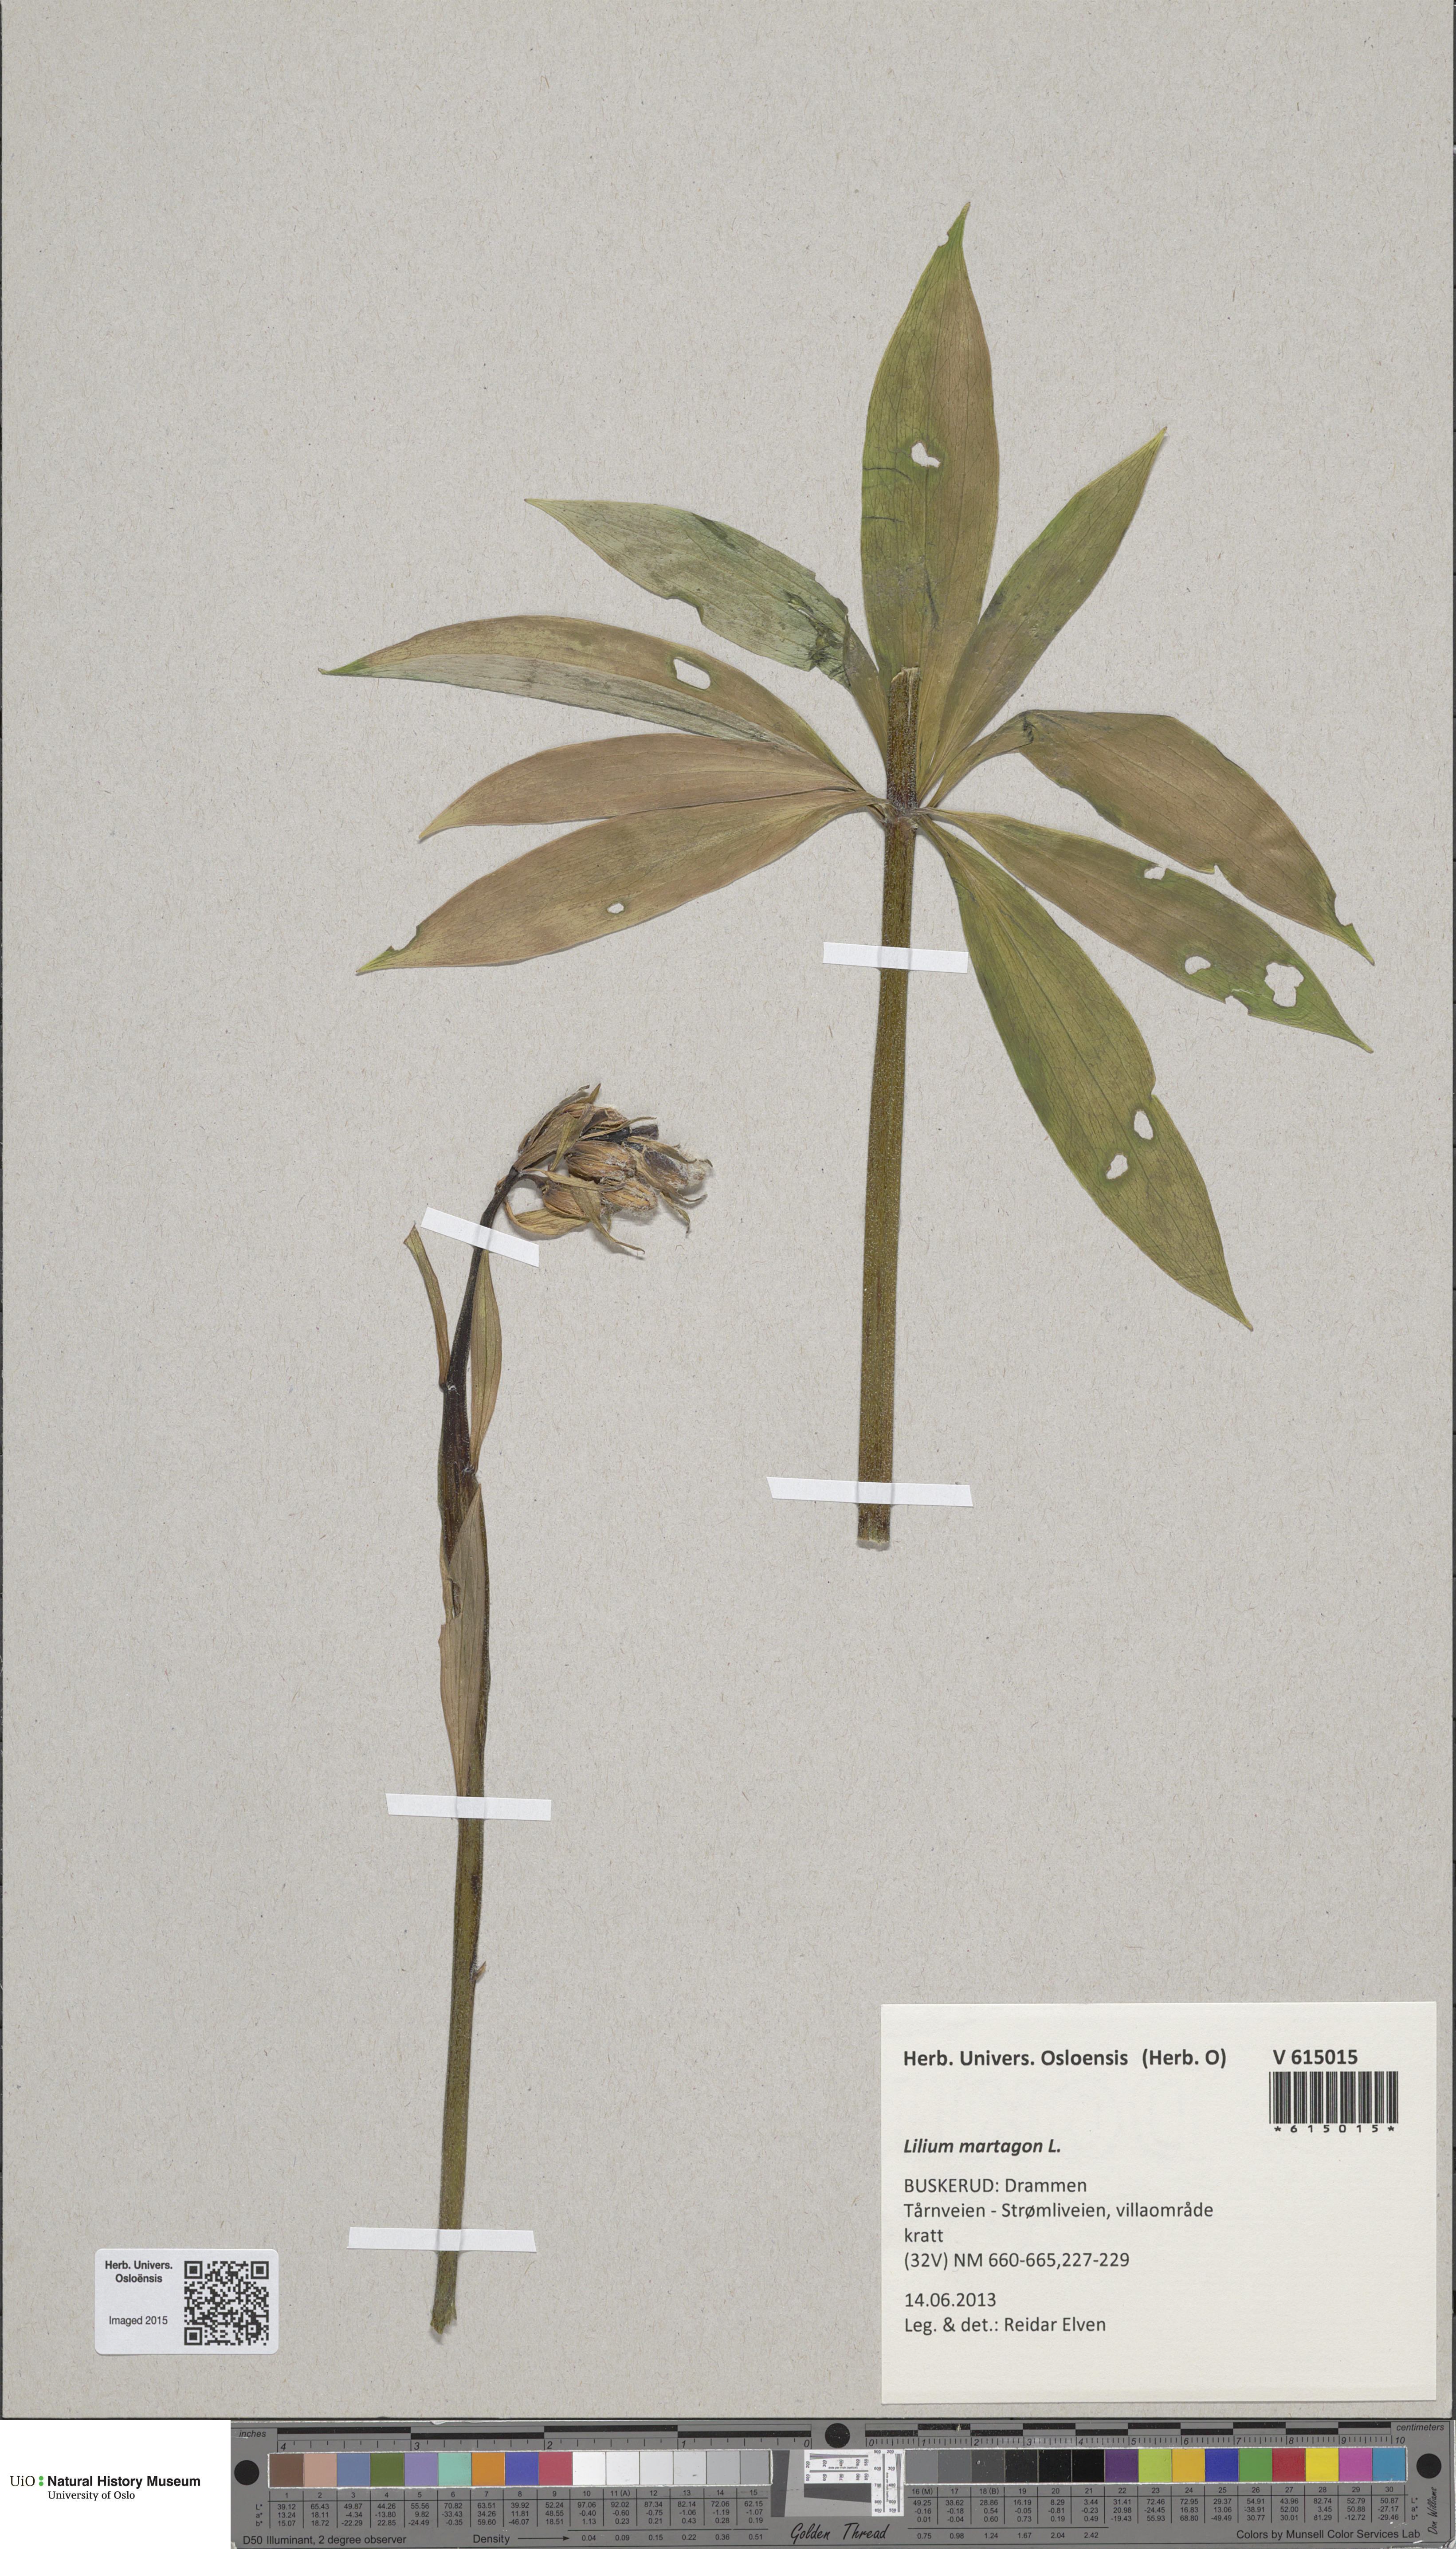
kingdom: Plantae
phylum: Tracheophyta
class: Liliopsida
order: Liliales
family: Liliaceae
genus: Lilium
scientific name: Lilium martagon
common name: Martagon lily
